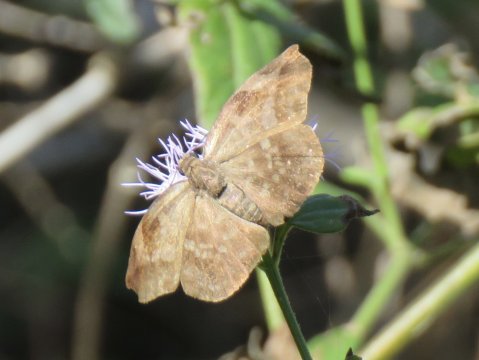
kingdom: Animalia
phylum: Arthropoda
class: Insecta
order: Lepidoptera
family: Hesperiidae
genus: Achlyodes
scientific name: Achlyodes thraso
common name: Sickle-winged Skipper
